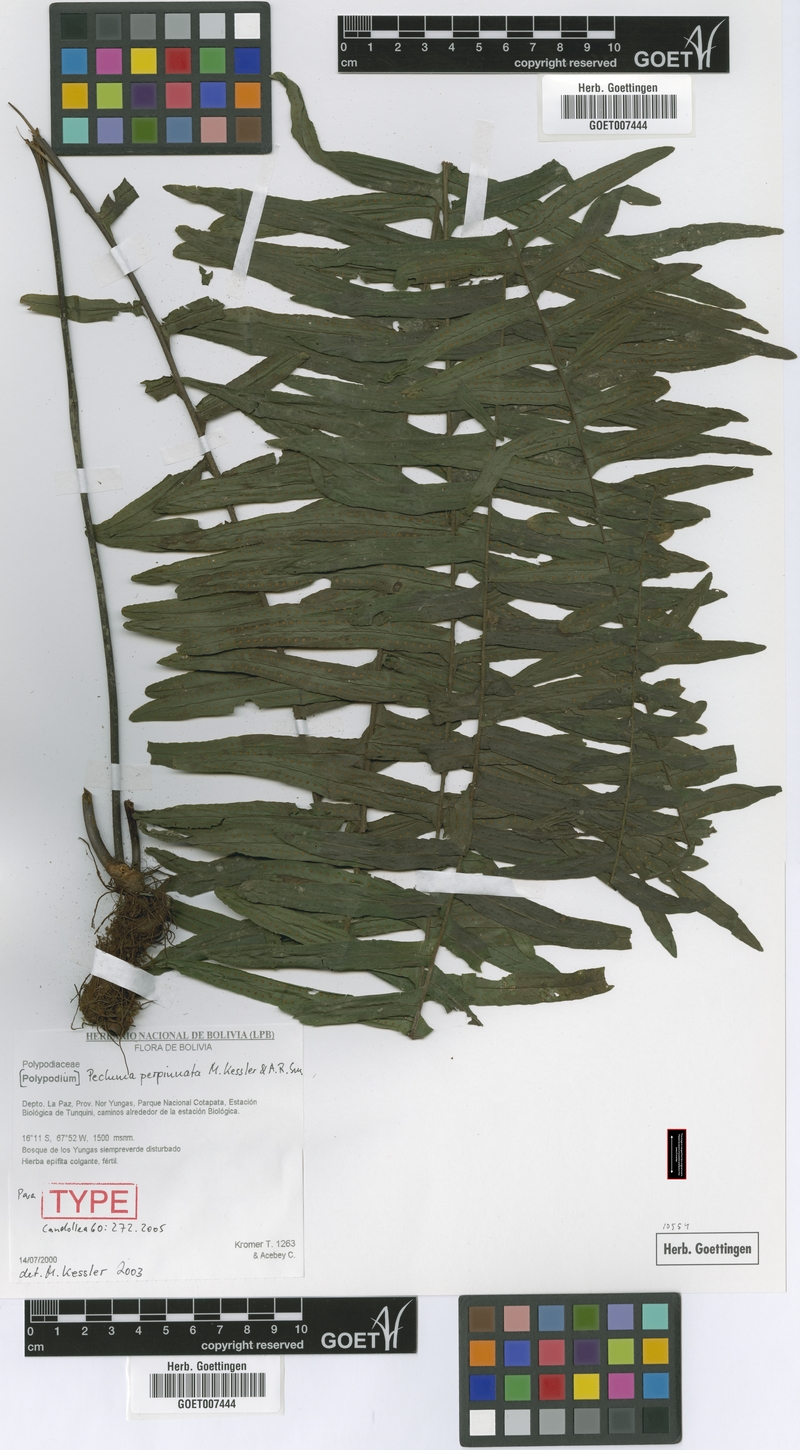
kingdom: Plantae
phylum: Tracheophyta
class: Polypodiopsida
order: Polypodiales
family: Polypodiaceae
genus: Pecluma
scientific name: Pecluma perpinnata
